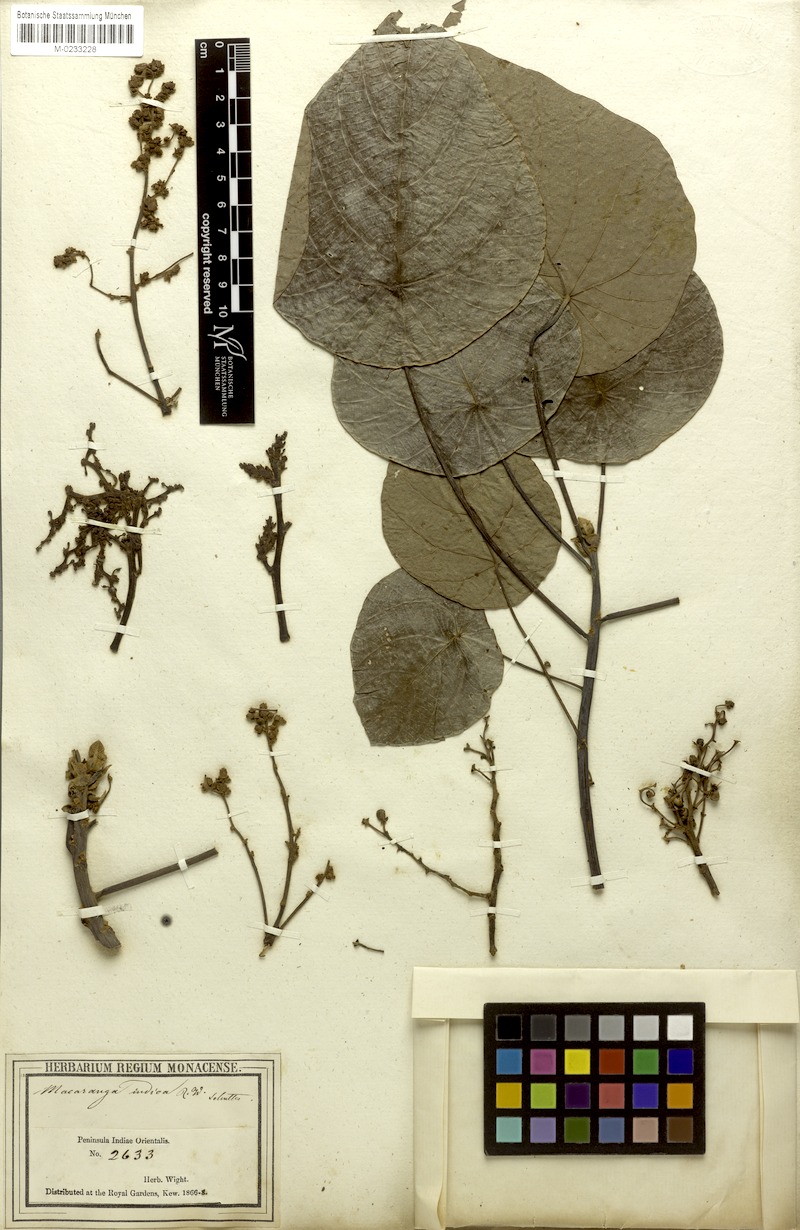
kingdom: Plantae
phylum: Tracheophyta
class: Magnoliopsida
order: Malpighiales
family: Euphorbiaceae
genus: Macaranga
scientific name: Macaranga indica
